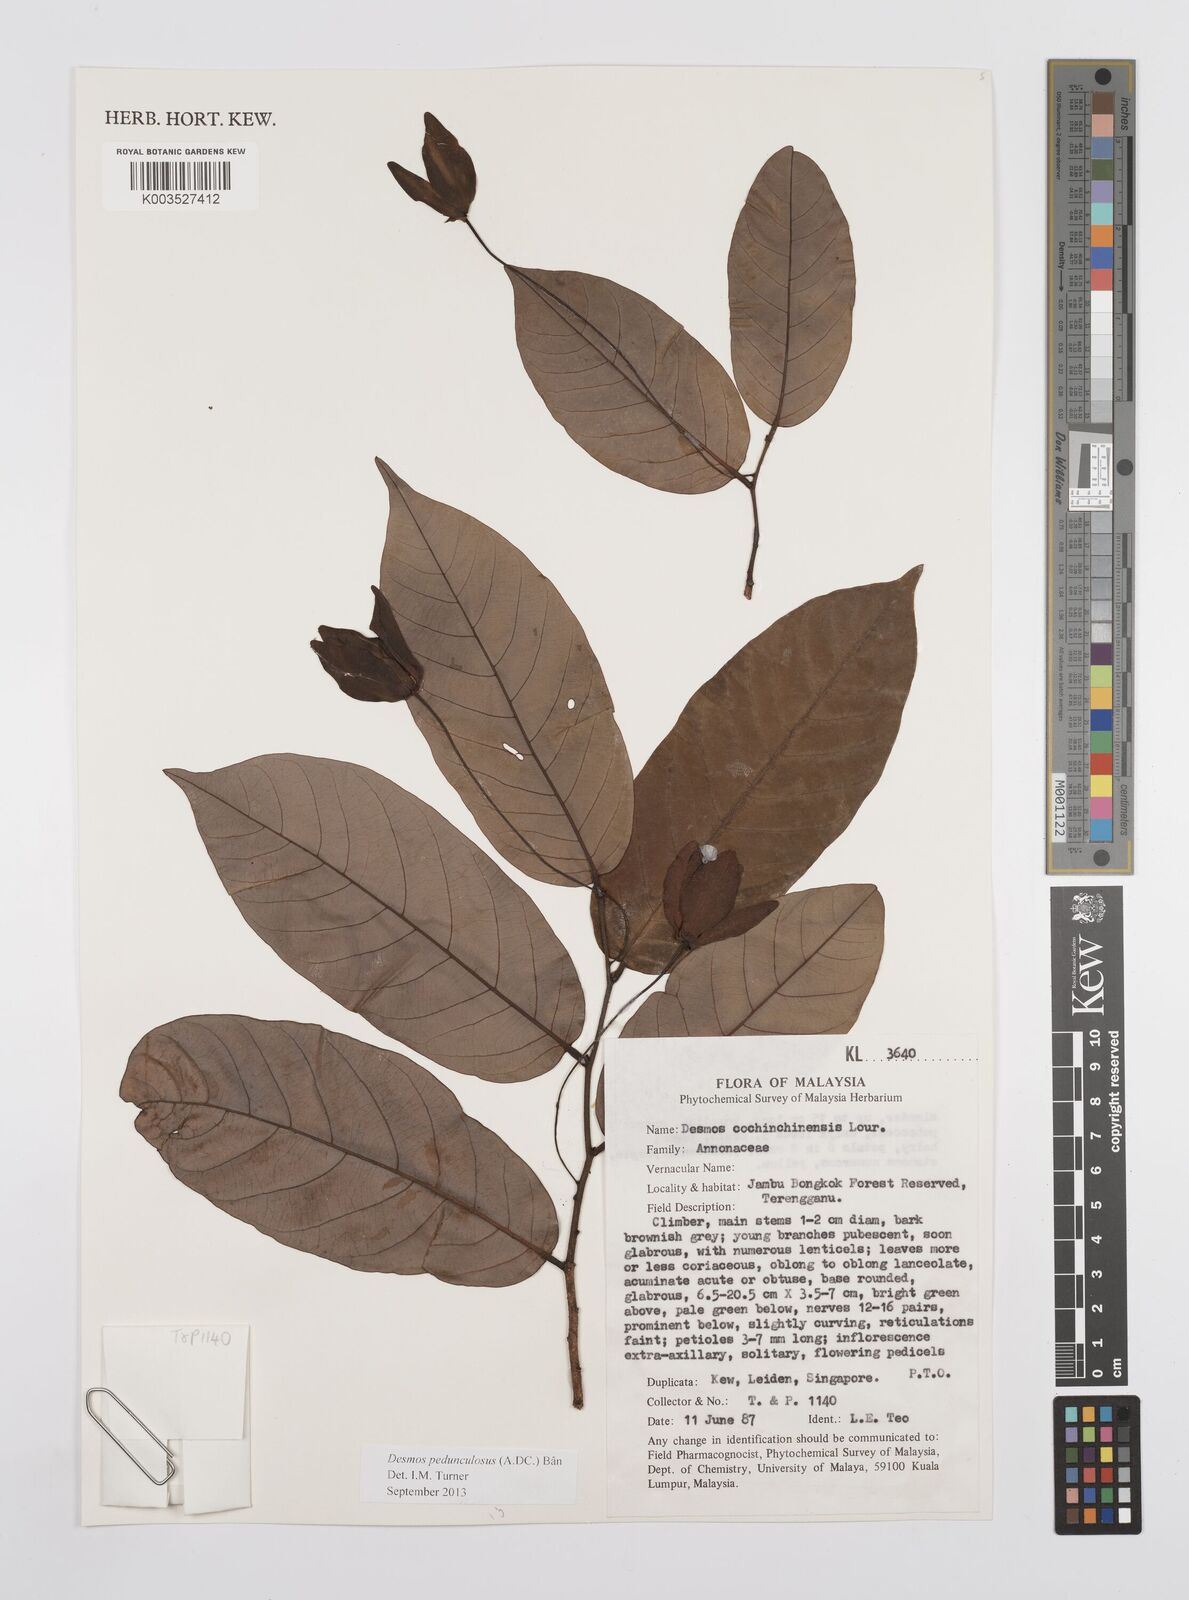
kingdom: Plantae
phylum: Tracheophyta
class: Magnoliopsida
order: Magnoliales
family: Annonaceae
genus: Desmos
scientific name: Desmos cochinchinensis
